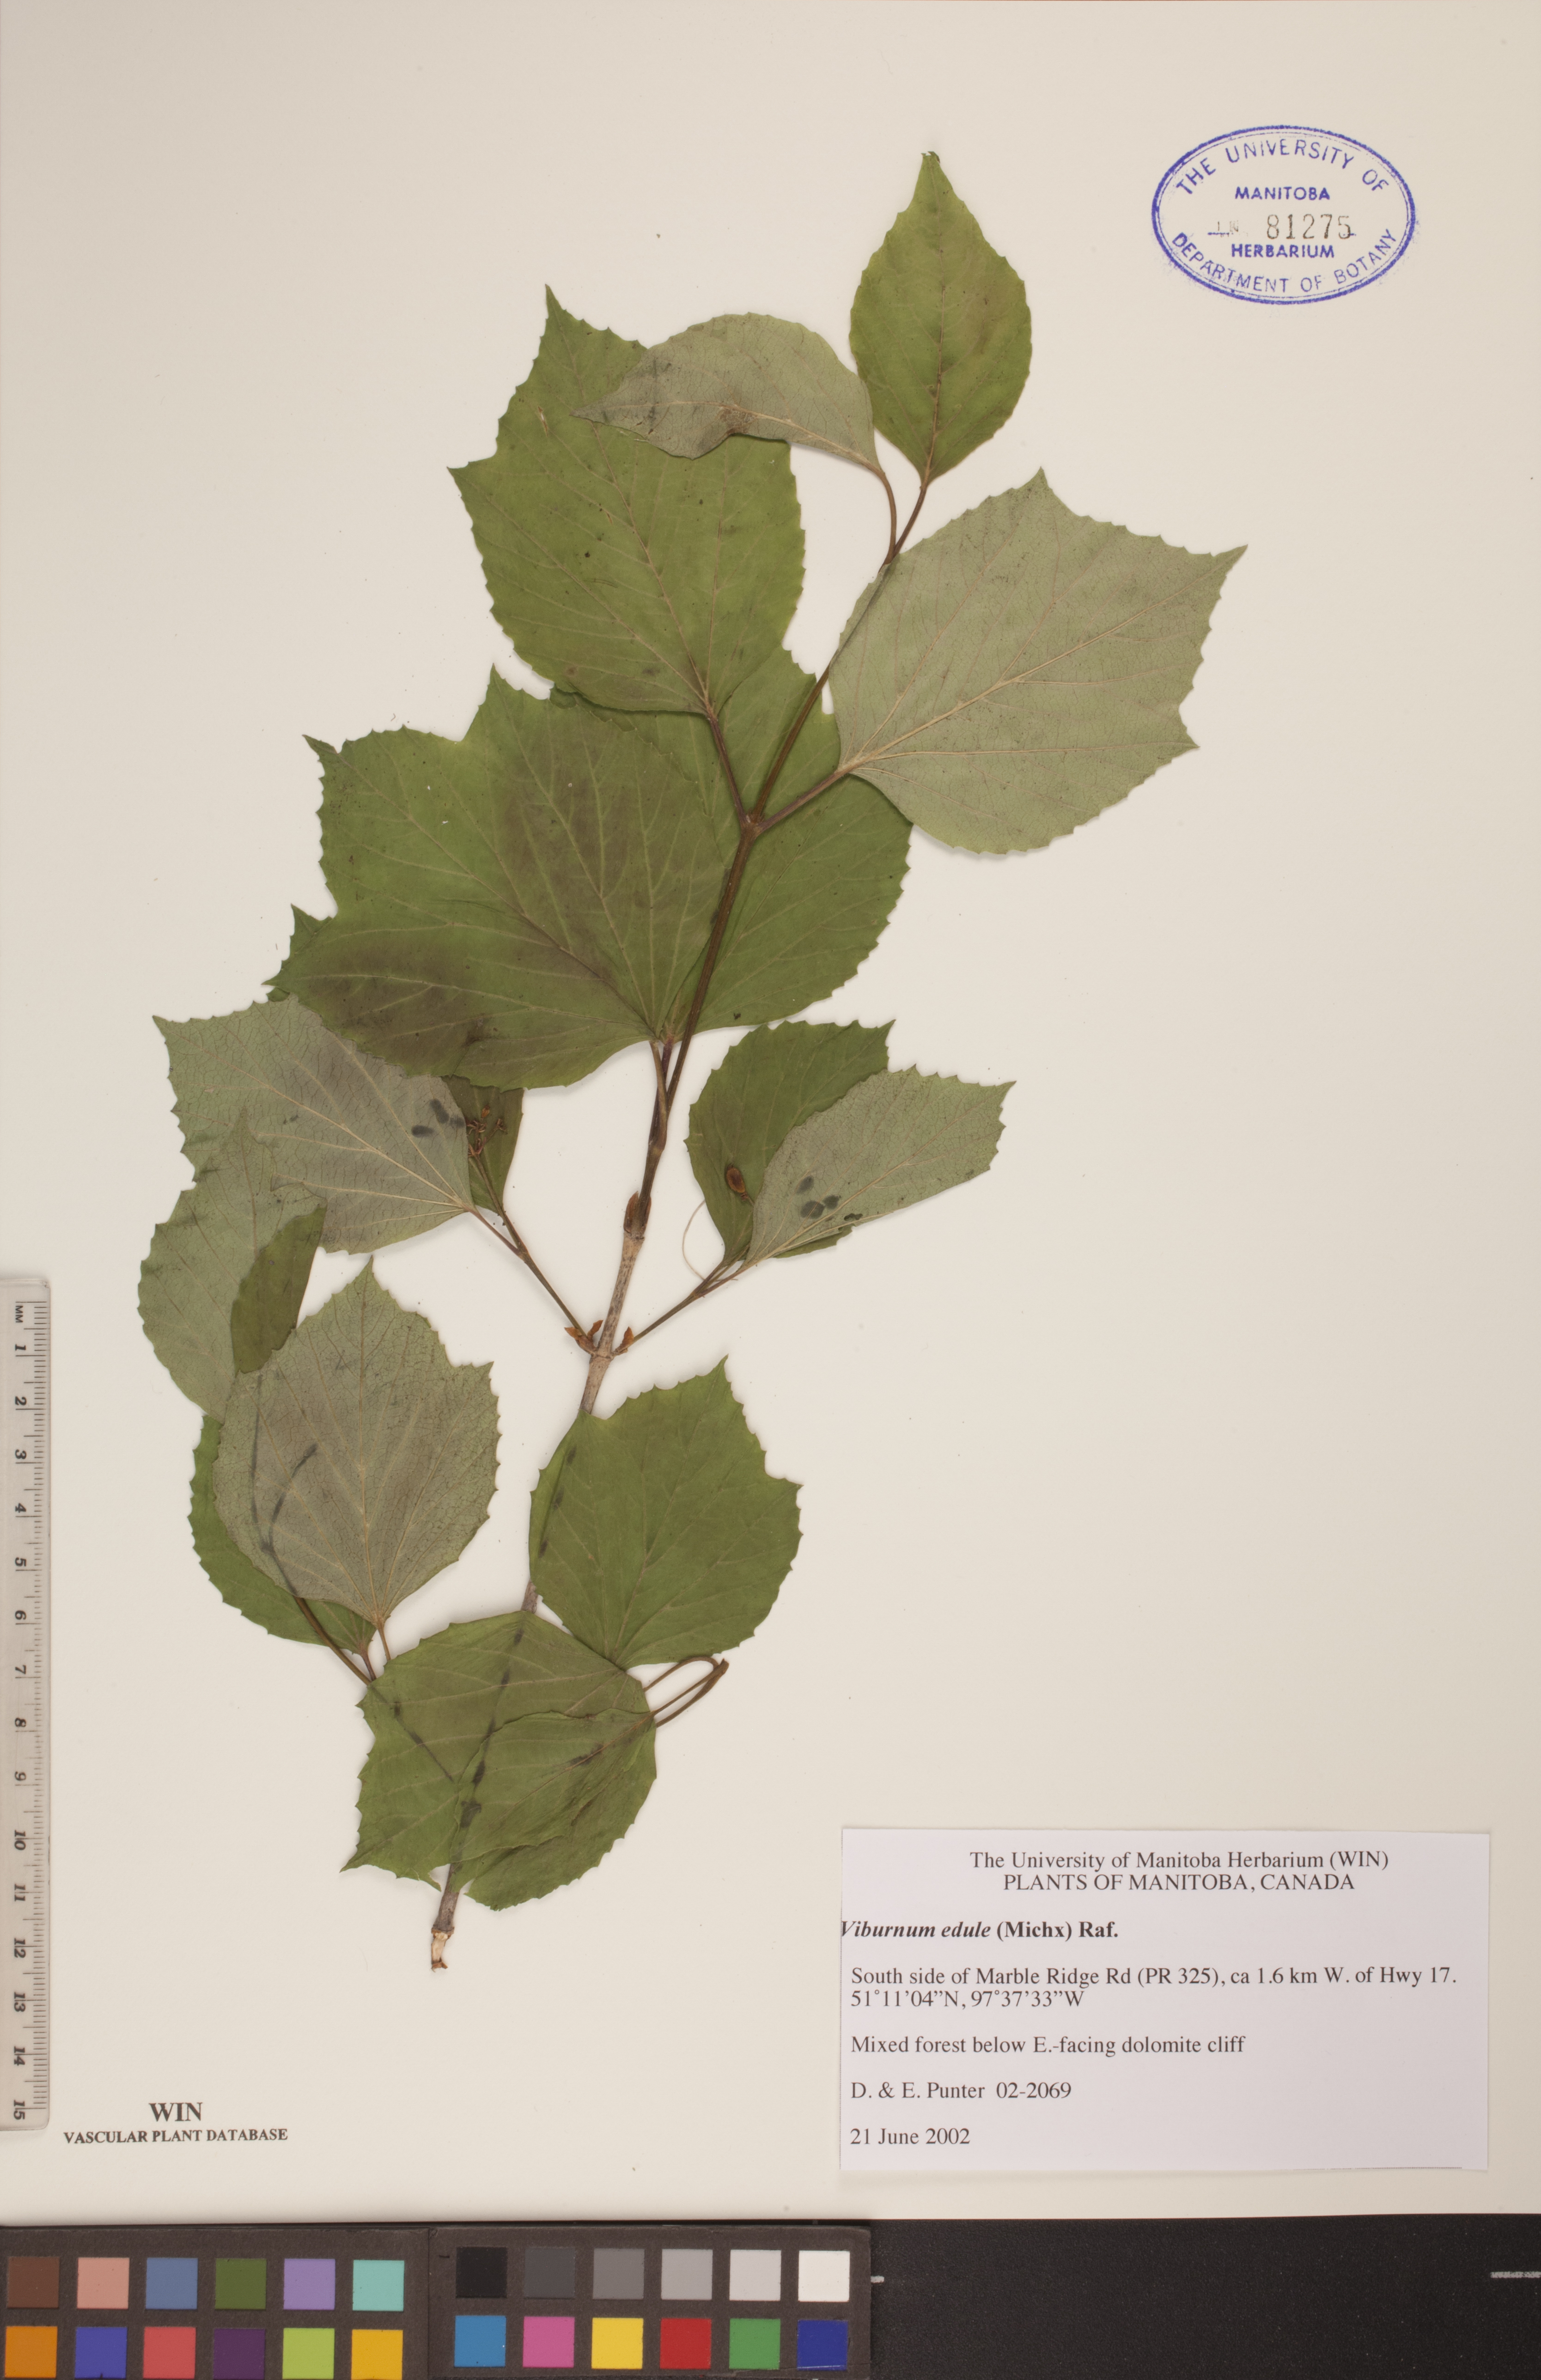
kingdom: Plantae
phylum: Tracheophyta
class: Magnoliopsida
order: Dipsacales
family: Viburnaceae
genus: Viburnum
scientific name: Viburnum edule
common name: Mooseberry
